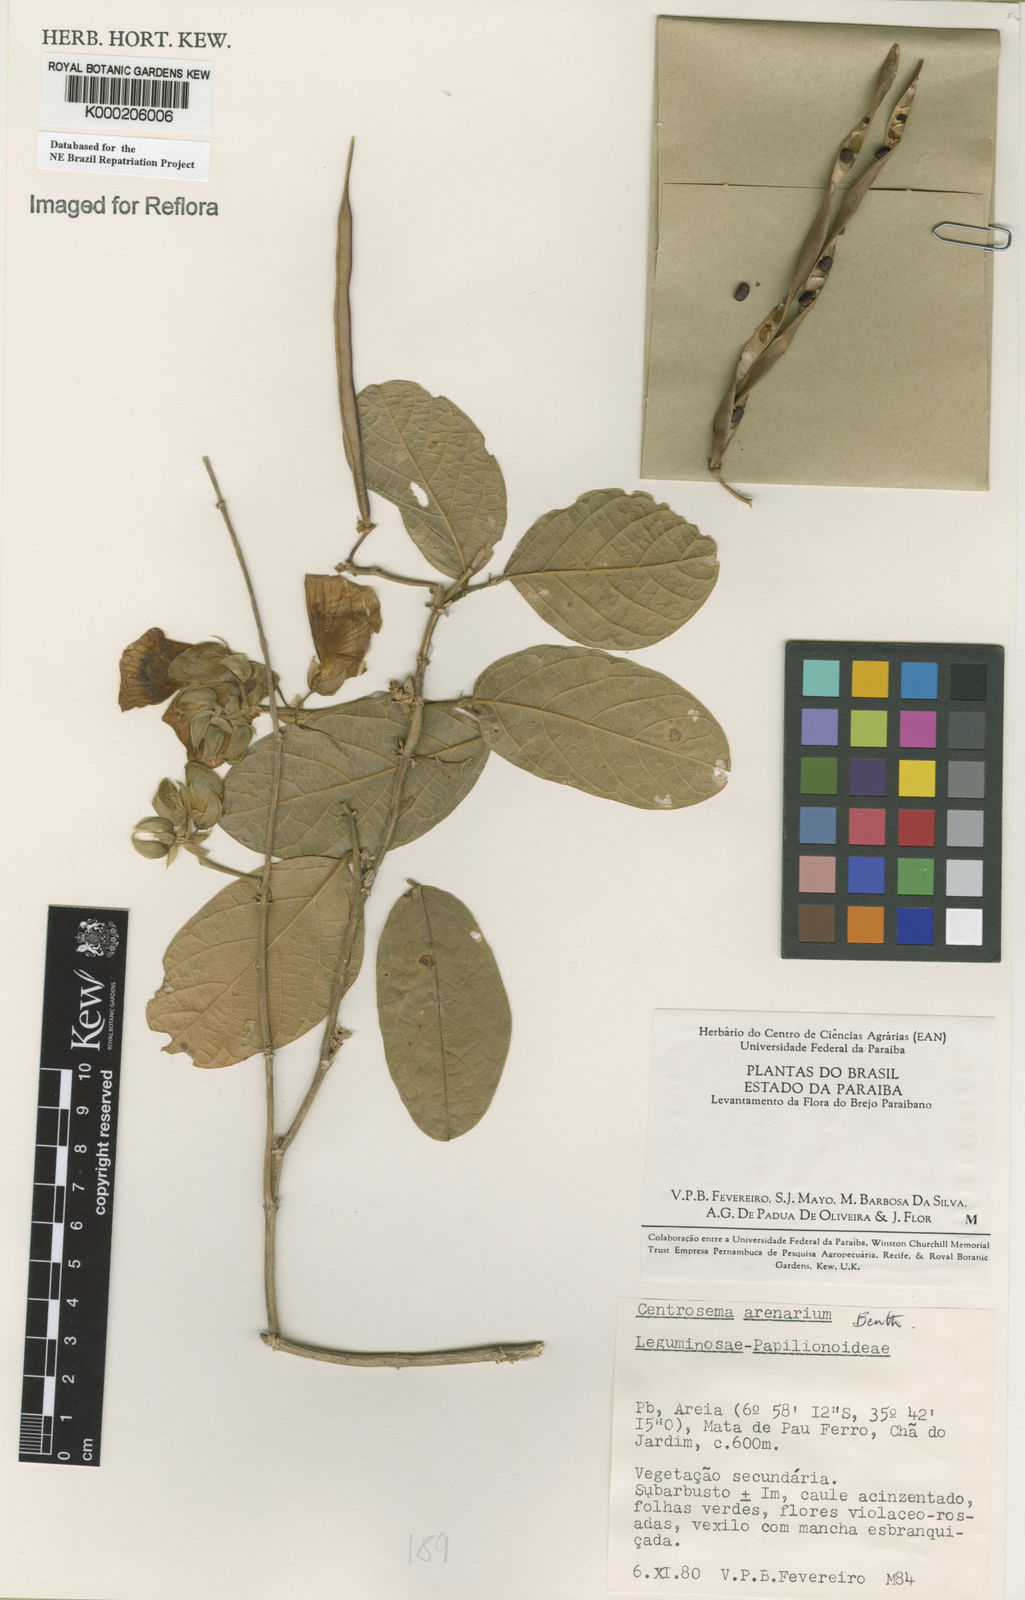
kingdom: Plantae
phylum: Tracheophyta
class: Magnoliopsida
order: Fabales
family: Fabaceae
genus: Centrosema
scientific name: Centrosema arenarium
